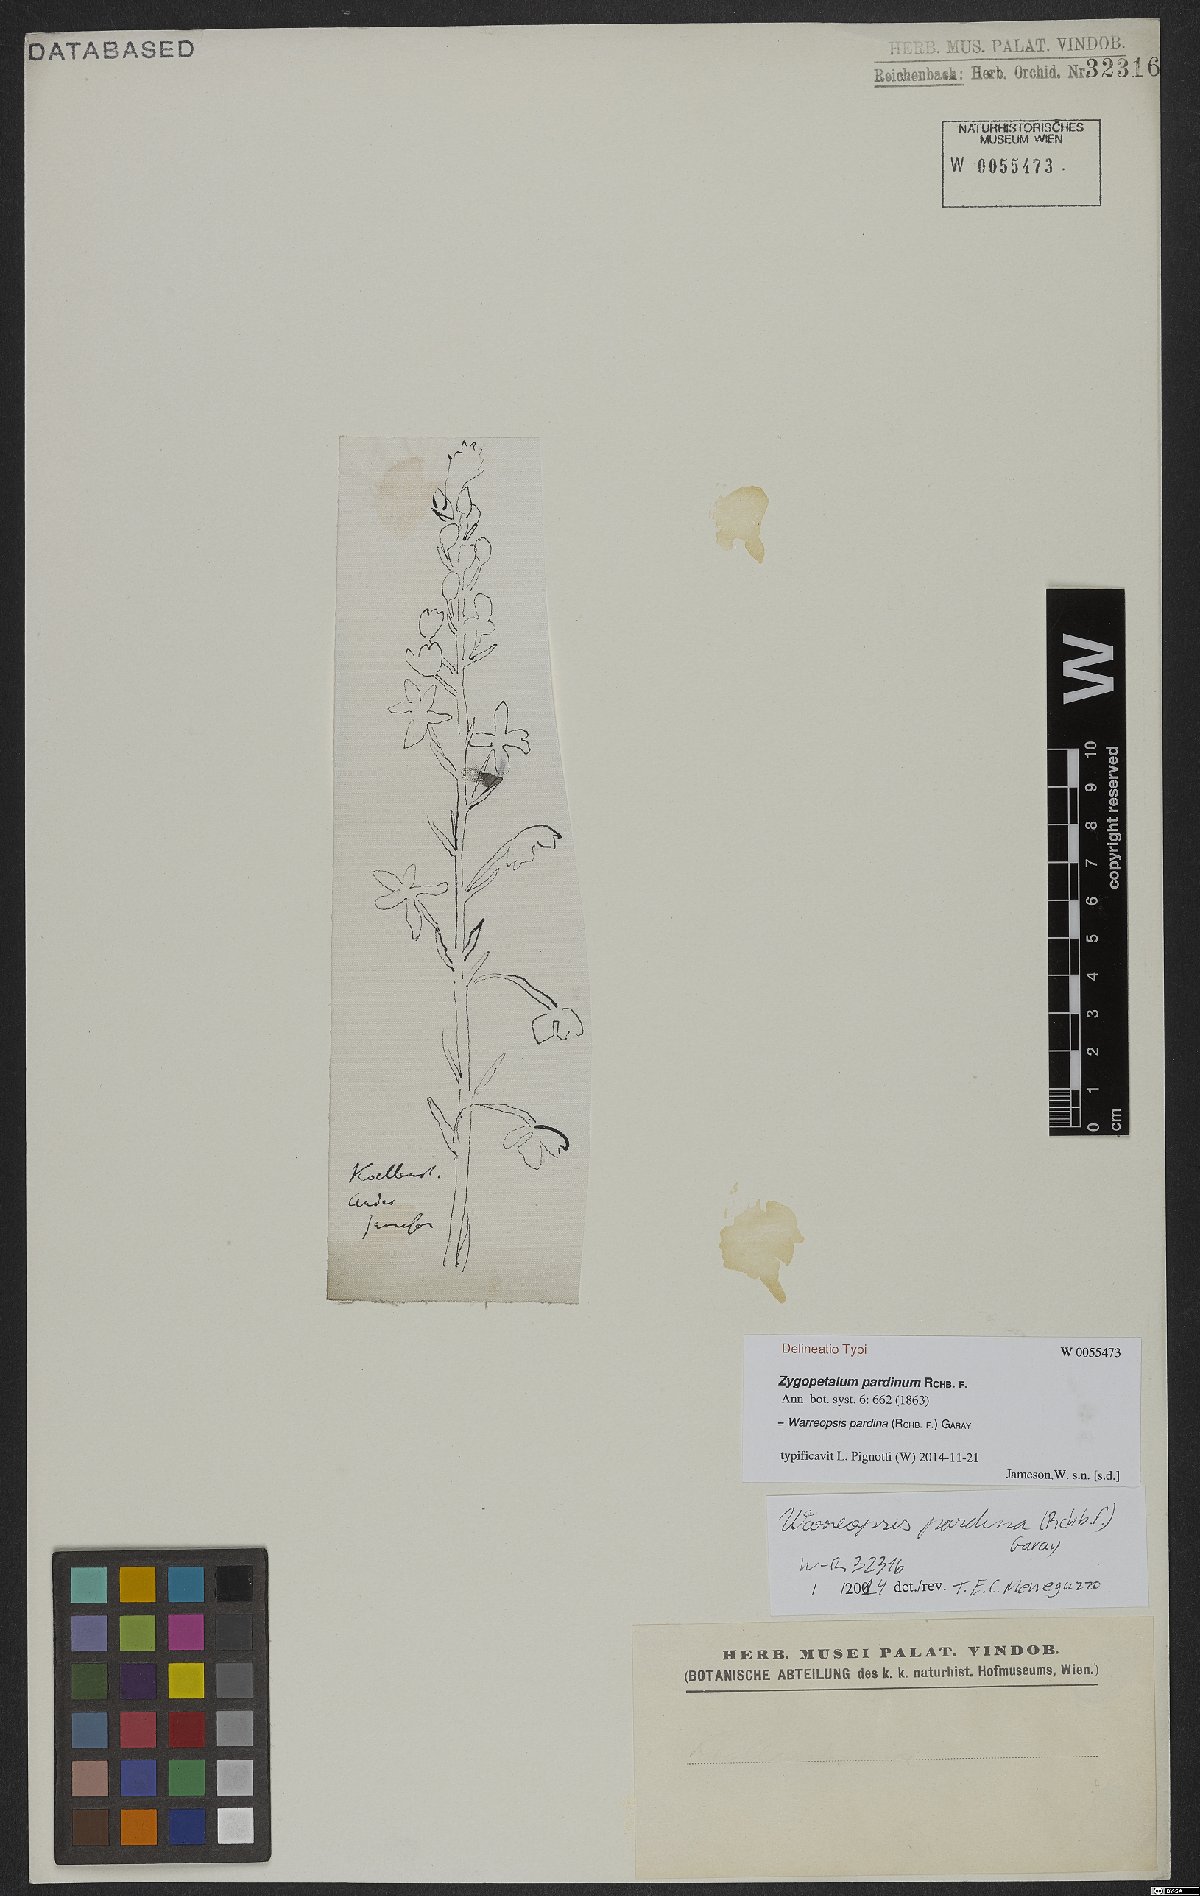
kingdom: Plantae
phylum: Tracheophyta
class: Liliopsida
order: Asparagales
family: Orchidaceae
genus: Warreopsis
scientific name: Warreopsis pardina
